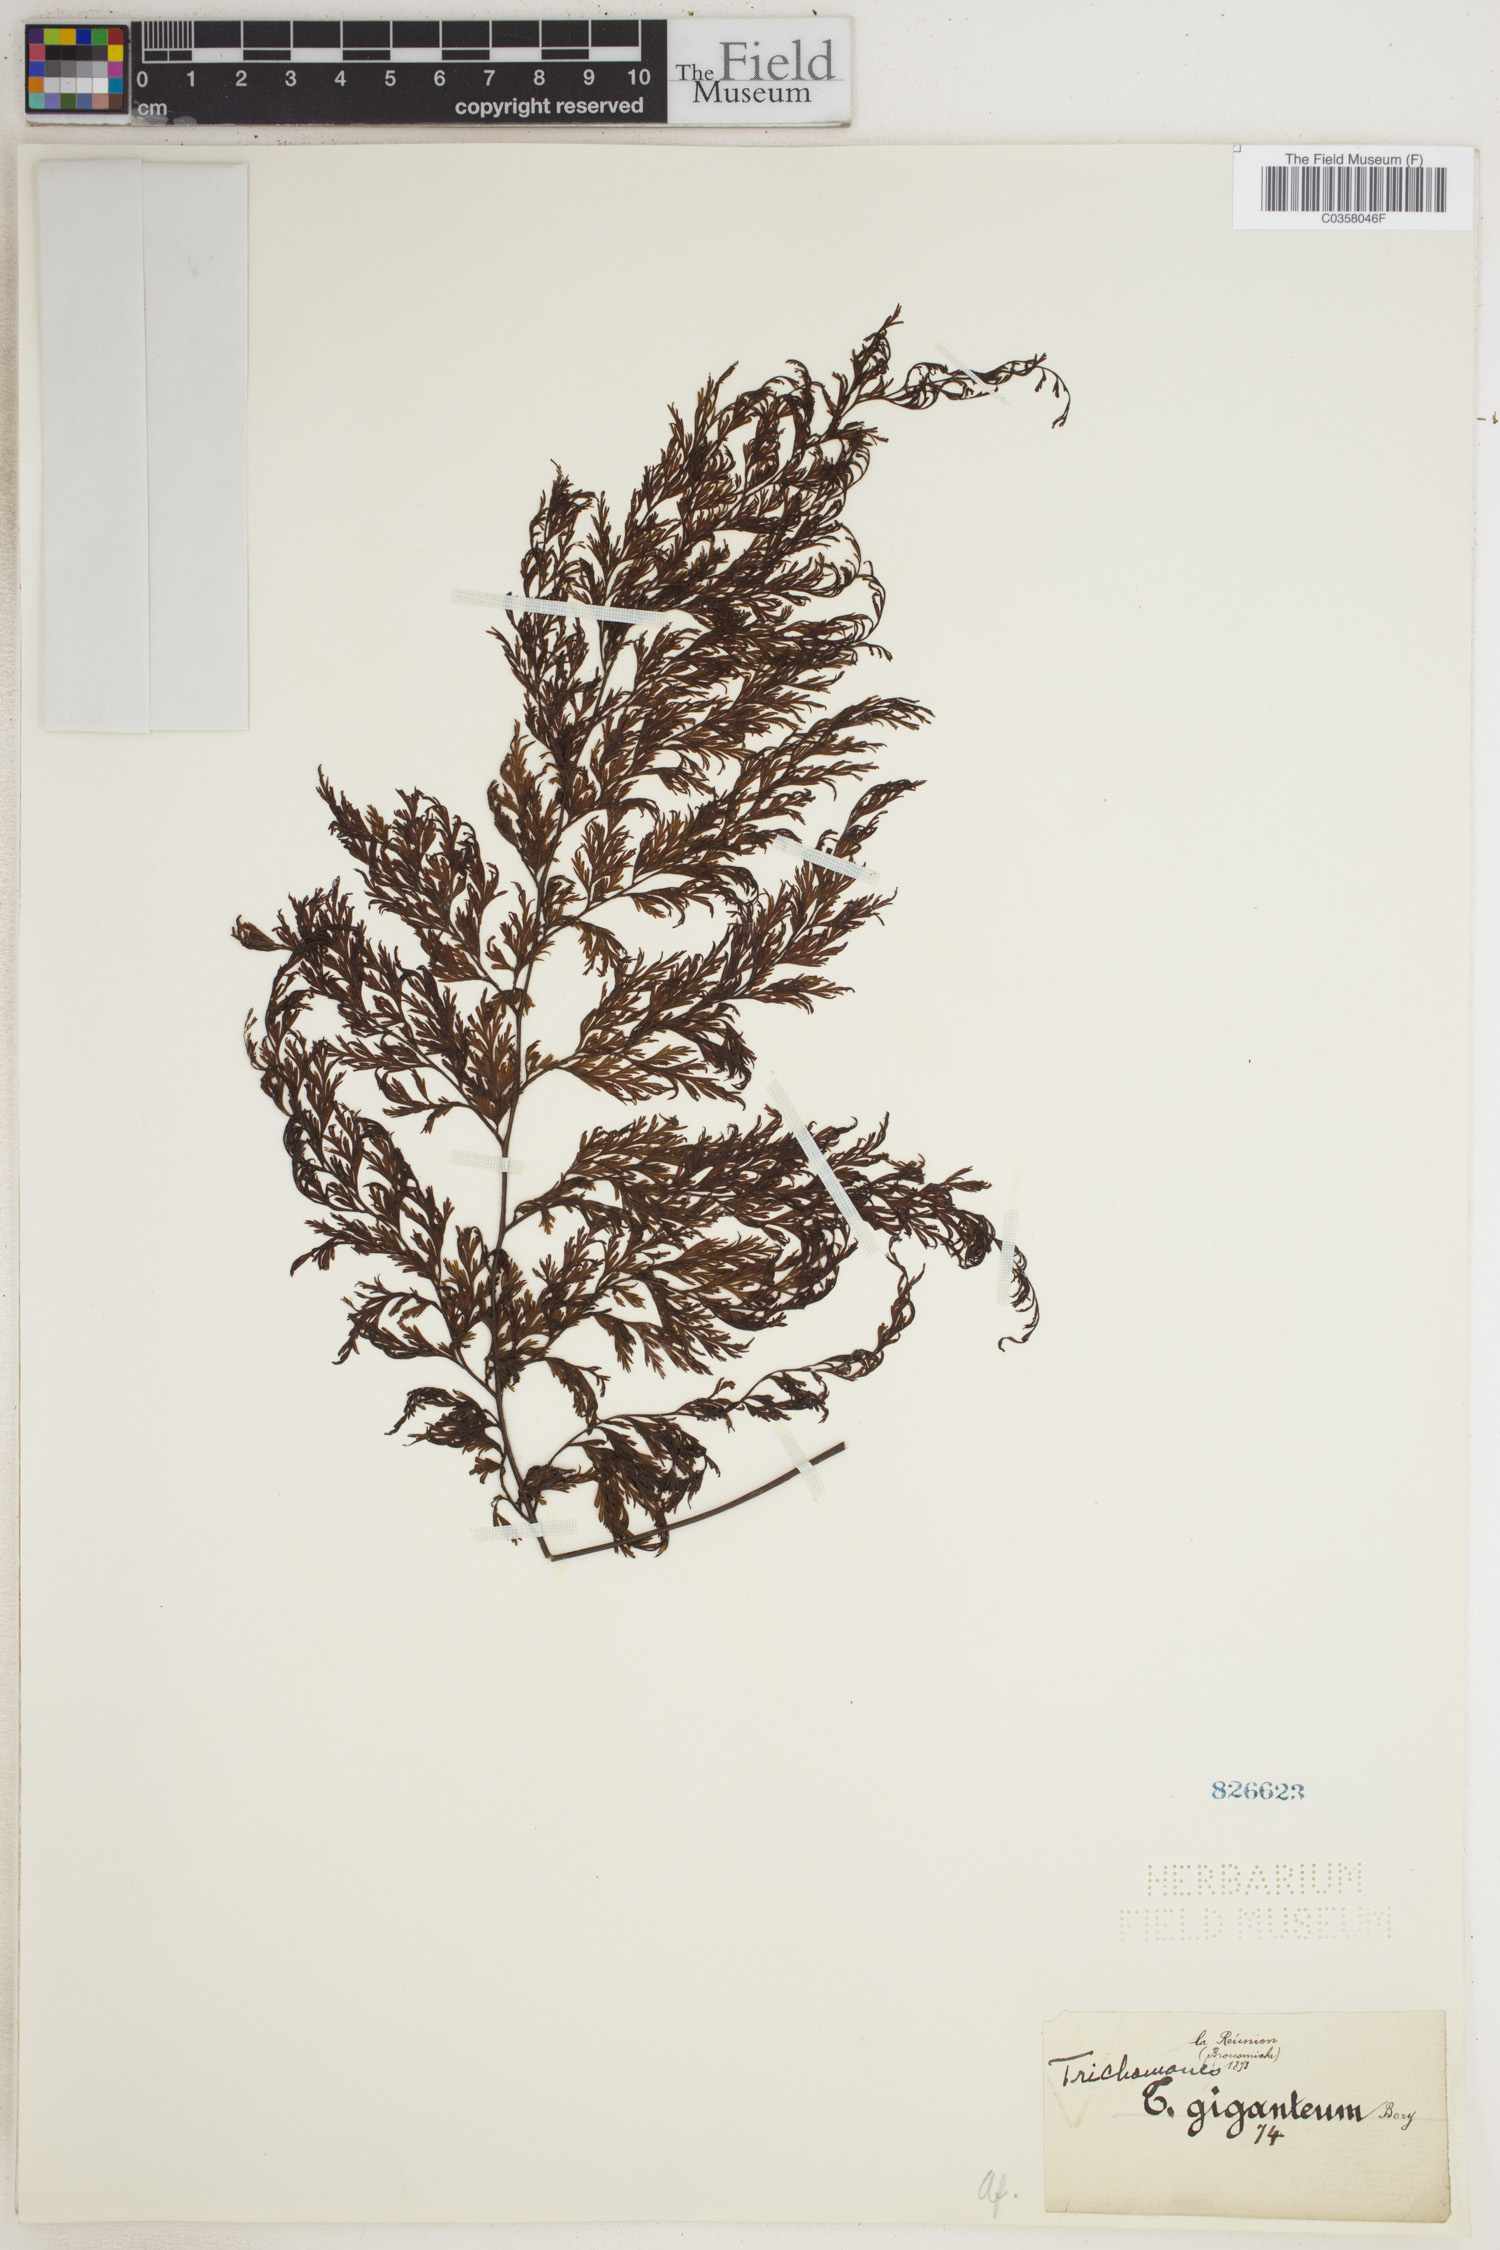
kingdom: Plantae
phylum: Tracheophyta
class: Polypodiopsida
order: Hymenophyllales
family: Hymenophyllaceae
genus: Vandenboschia
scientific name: Vandenboschia gigantea
